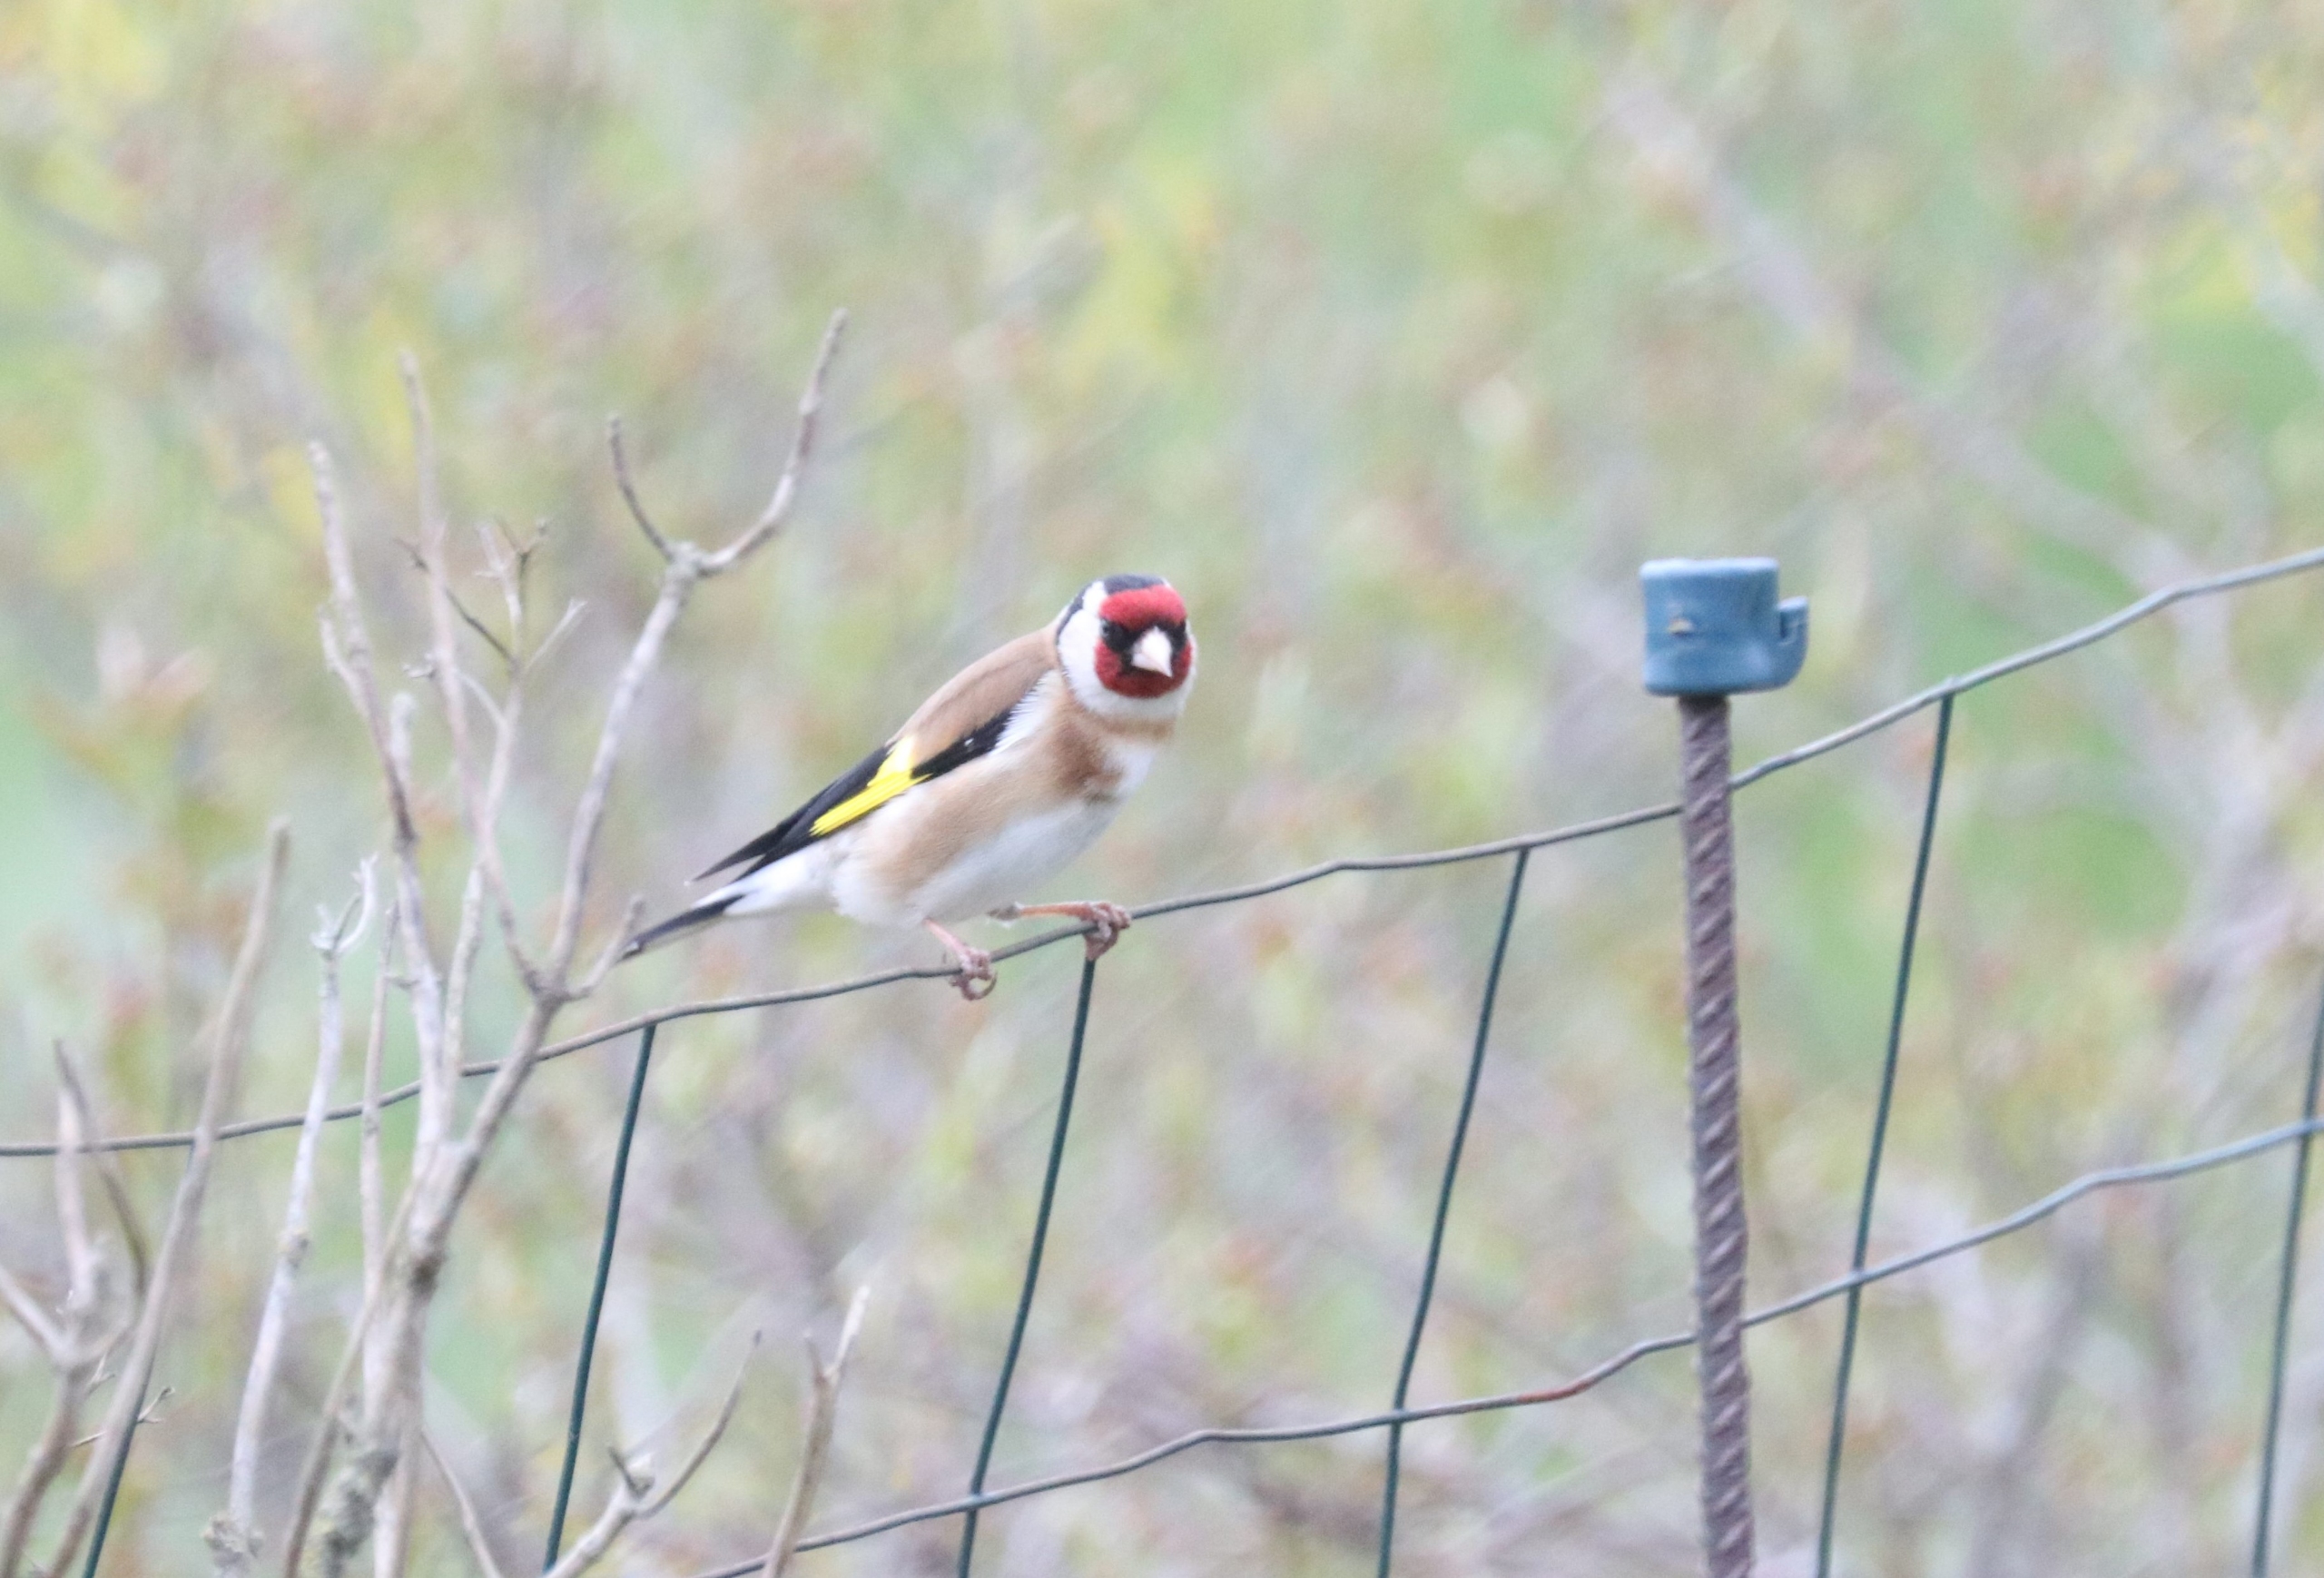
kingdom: Animalia
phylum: Chordata
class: Aves
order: Passeriformes
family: Fringillidae
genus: Carduelis
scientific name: Carduelis carduelis
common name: Stillits
